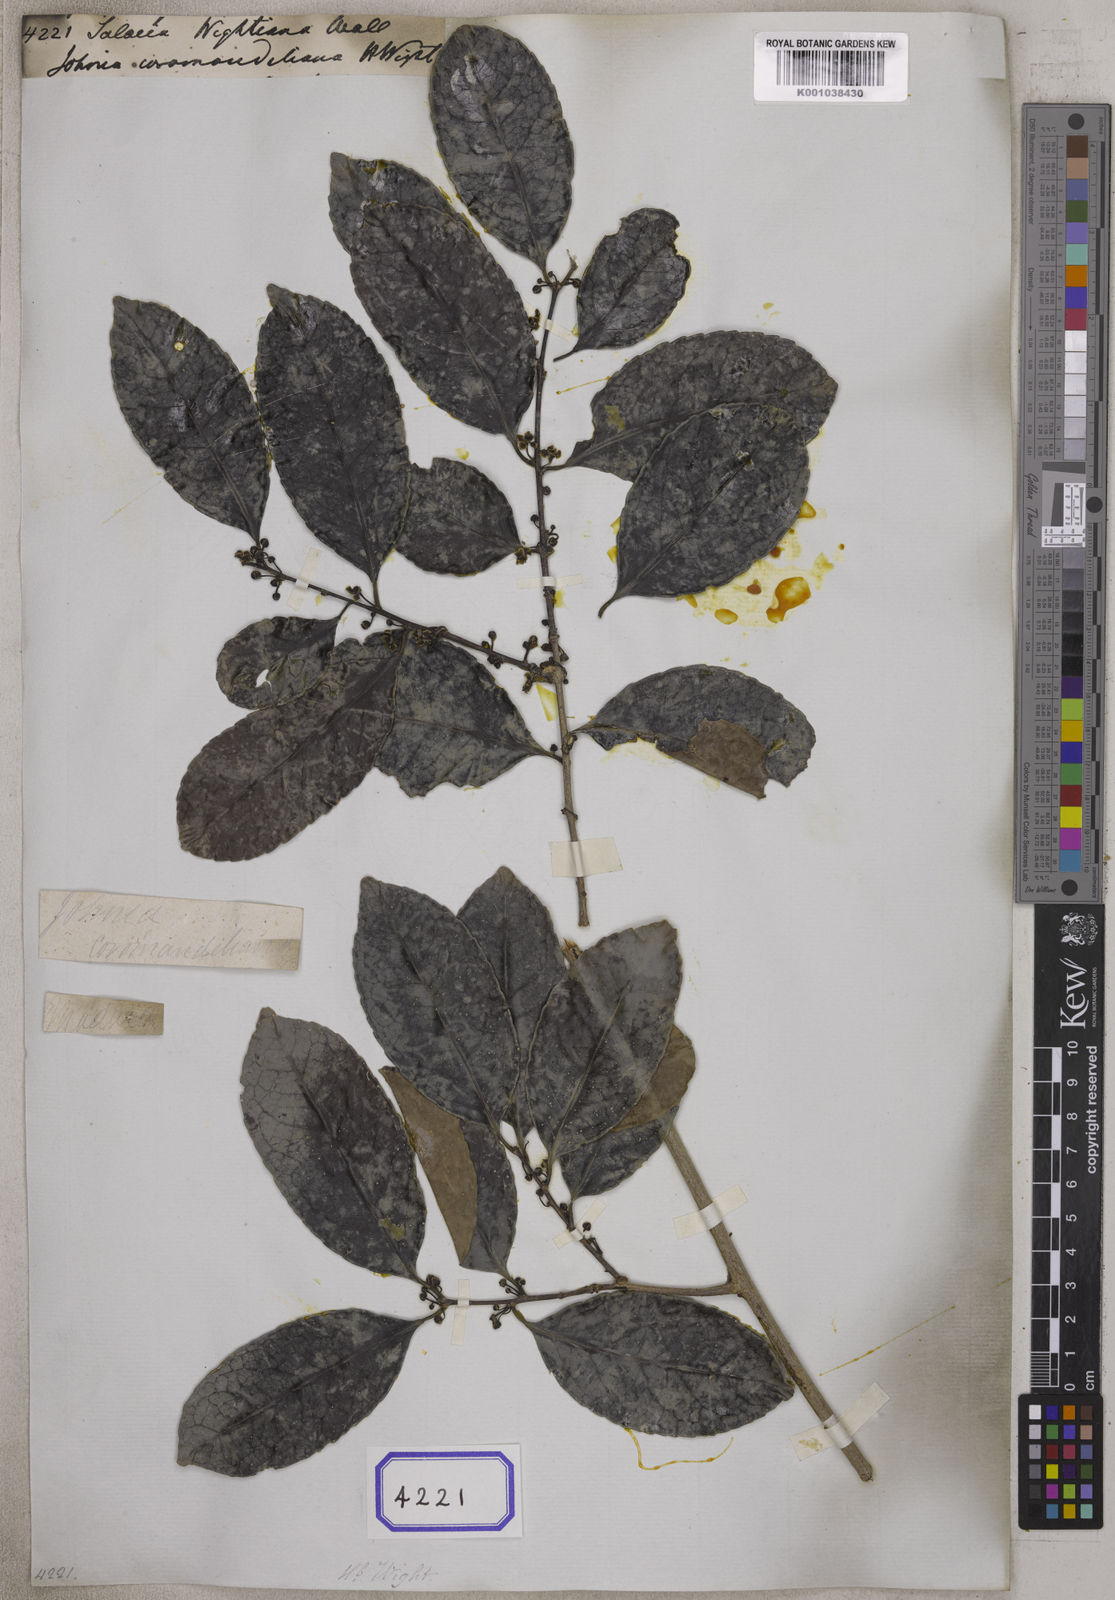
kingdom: Plantae
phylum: Tracheophyta
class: Magnoliopsida
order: Celastrales
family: Celastraceae
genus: Salacia
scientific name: Salacia chinensis
